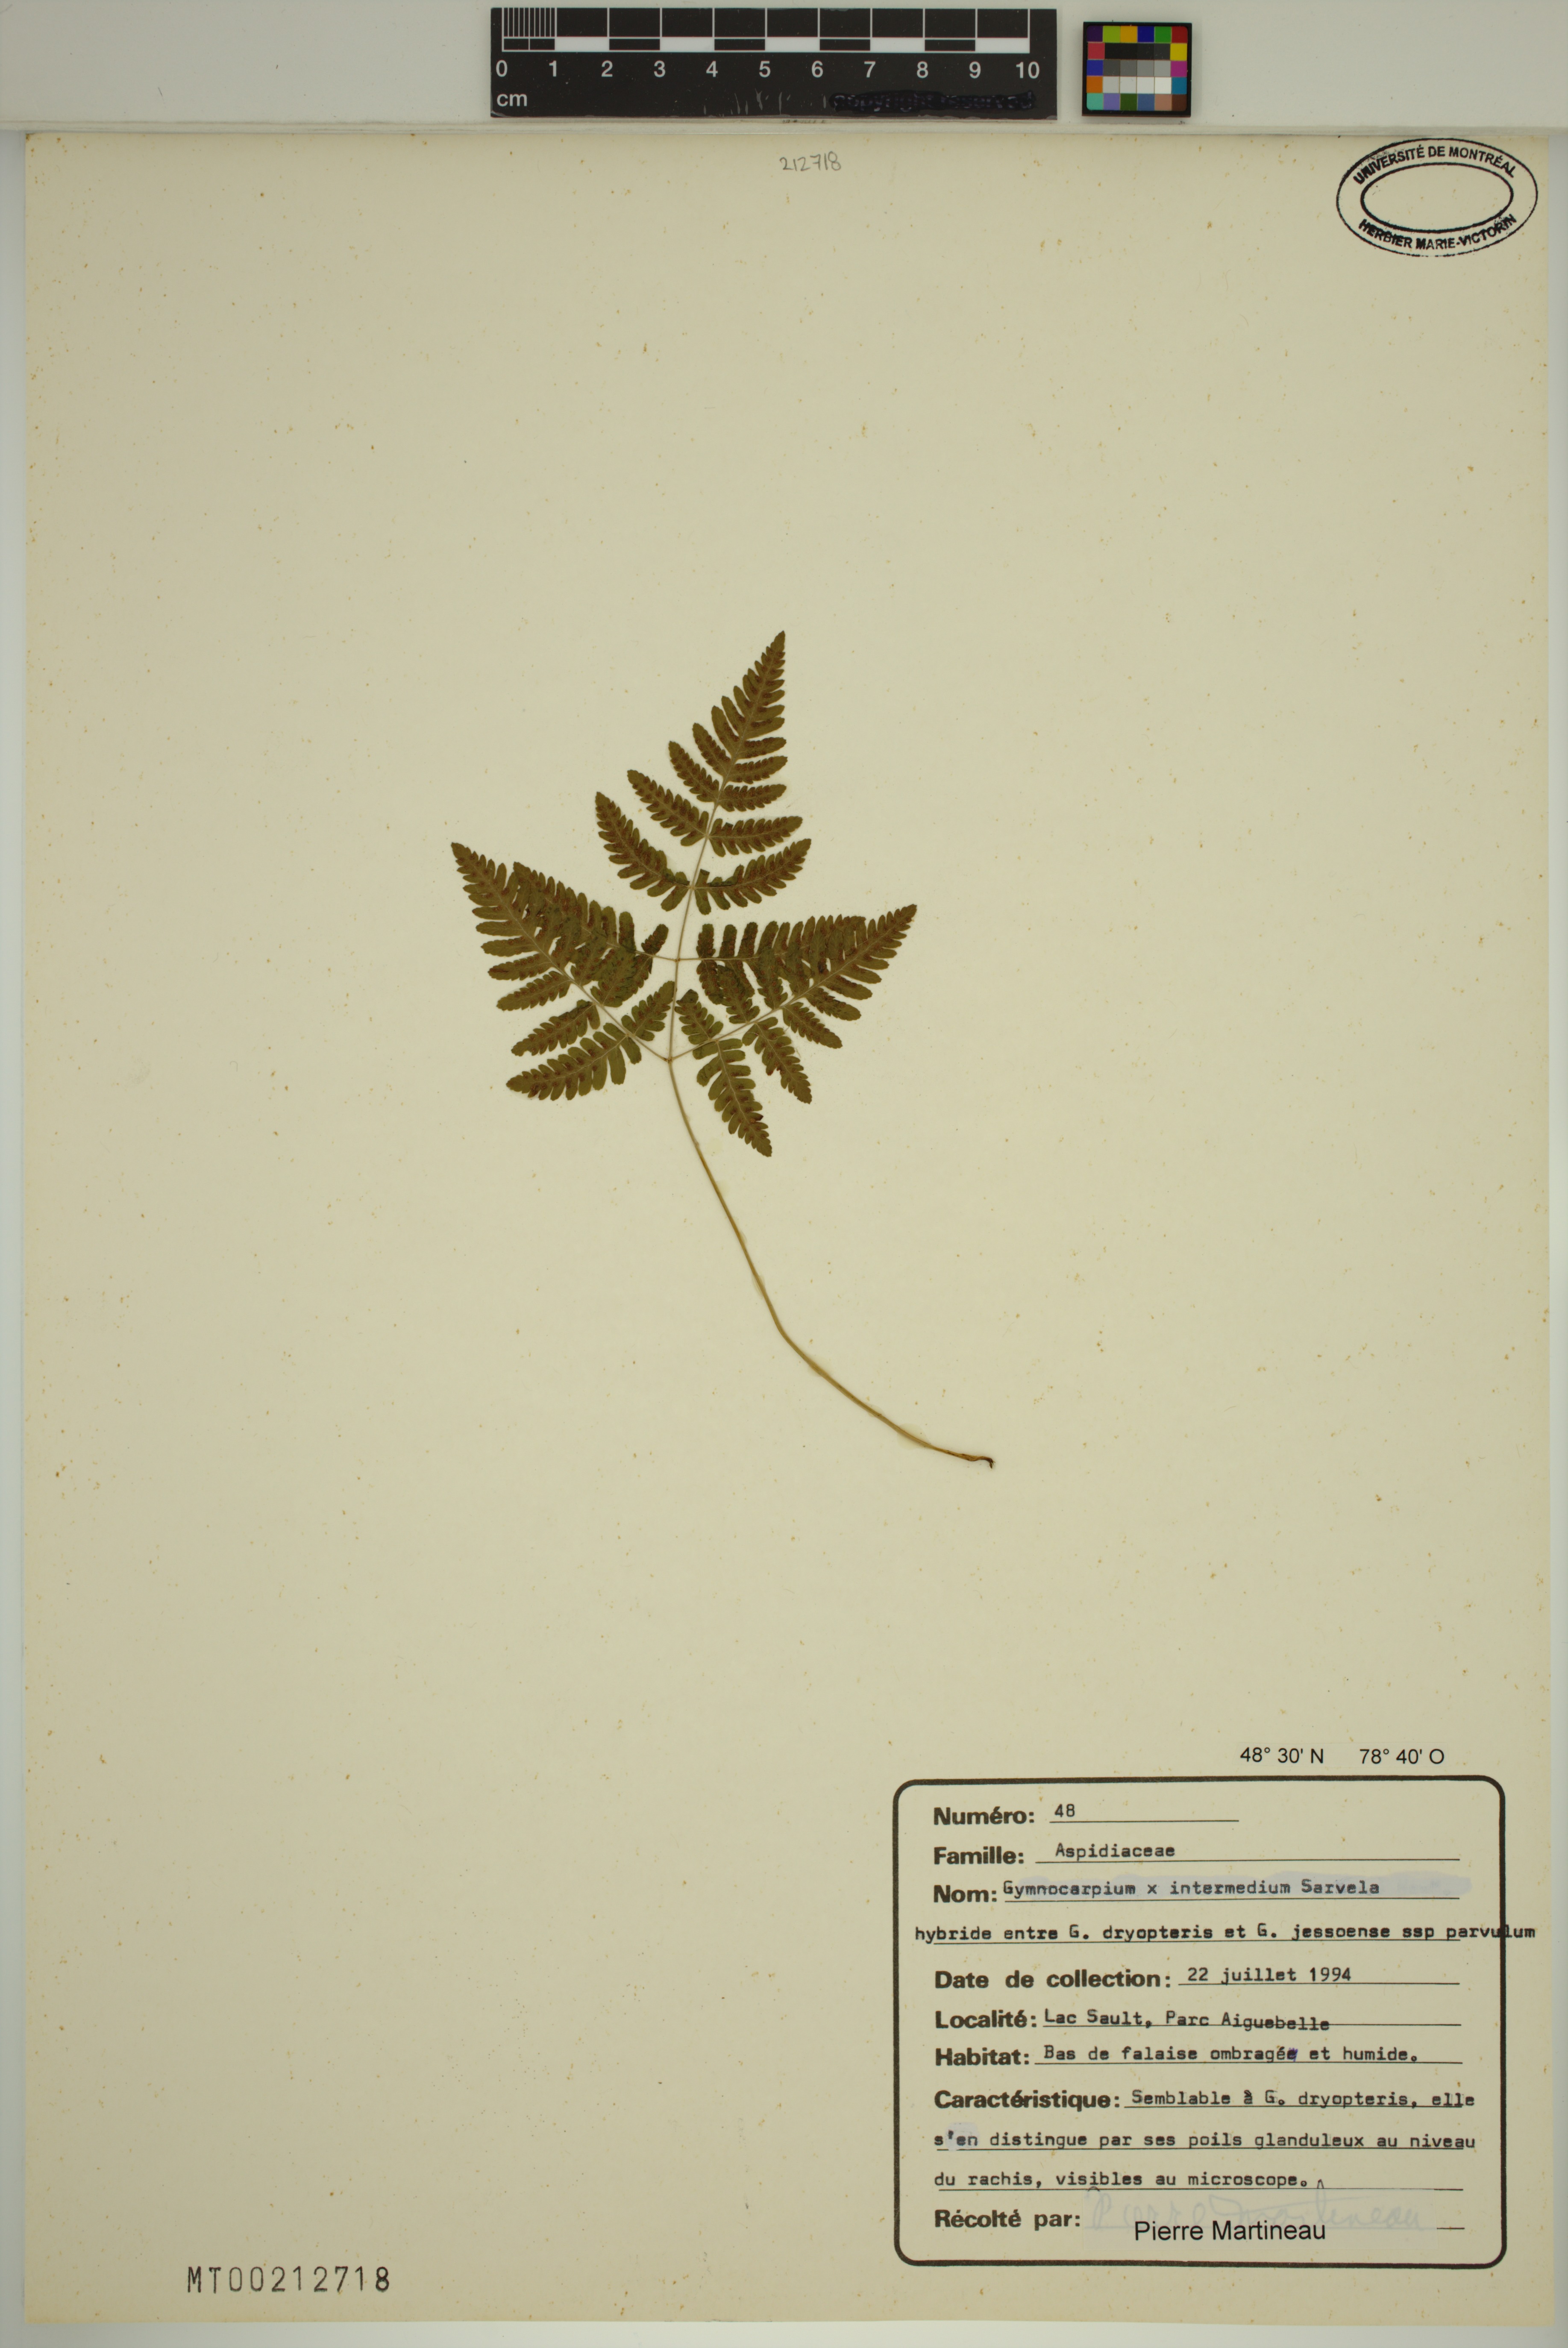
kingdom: Plantae
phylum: Tracheophyta
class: Polypodiopsida
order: Polypodiales
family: Cystopteridaceae
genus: Gymnocarpium
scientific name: Gymnocarpium intermedium
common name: Intermediate oak fern
